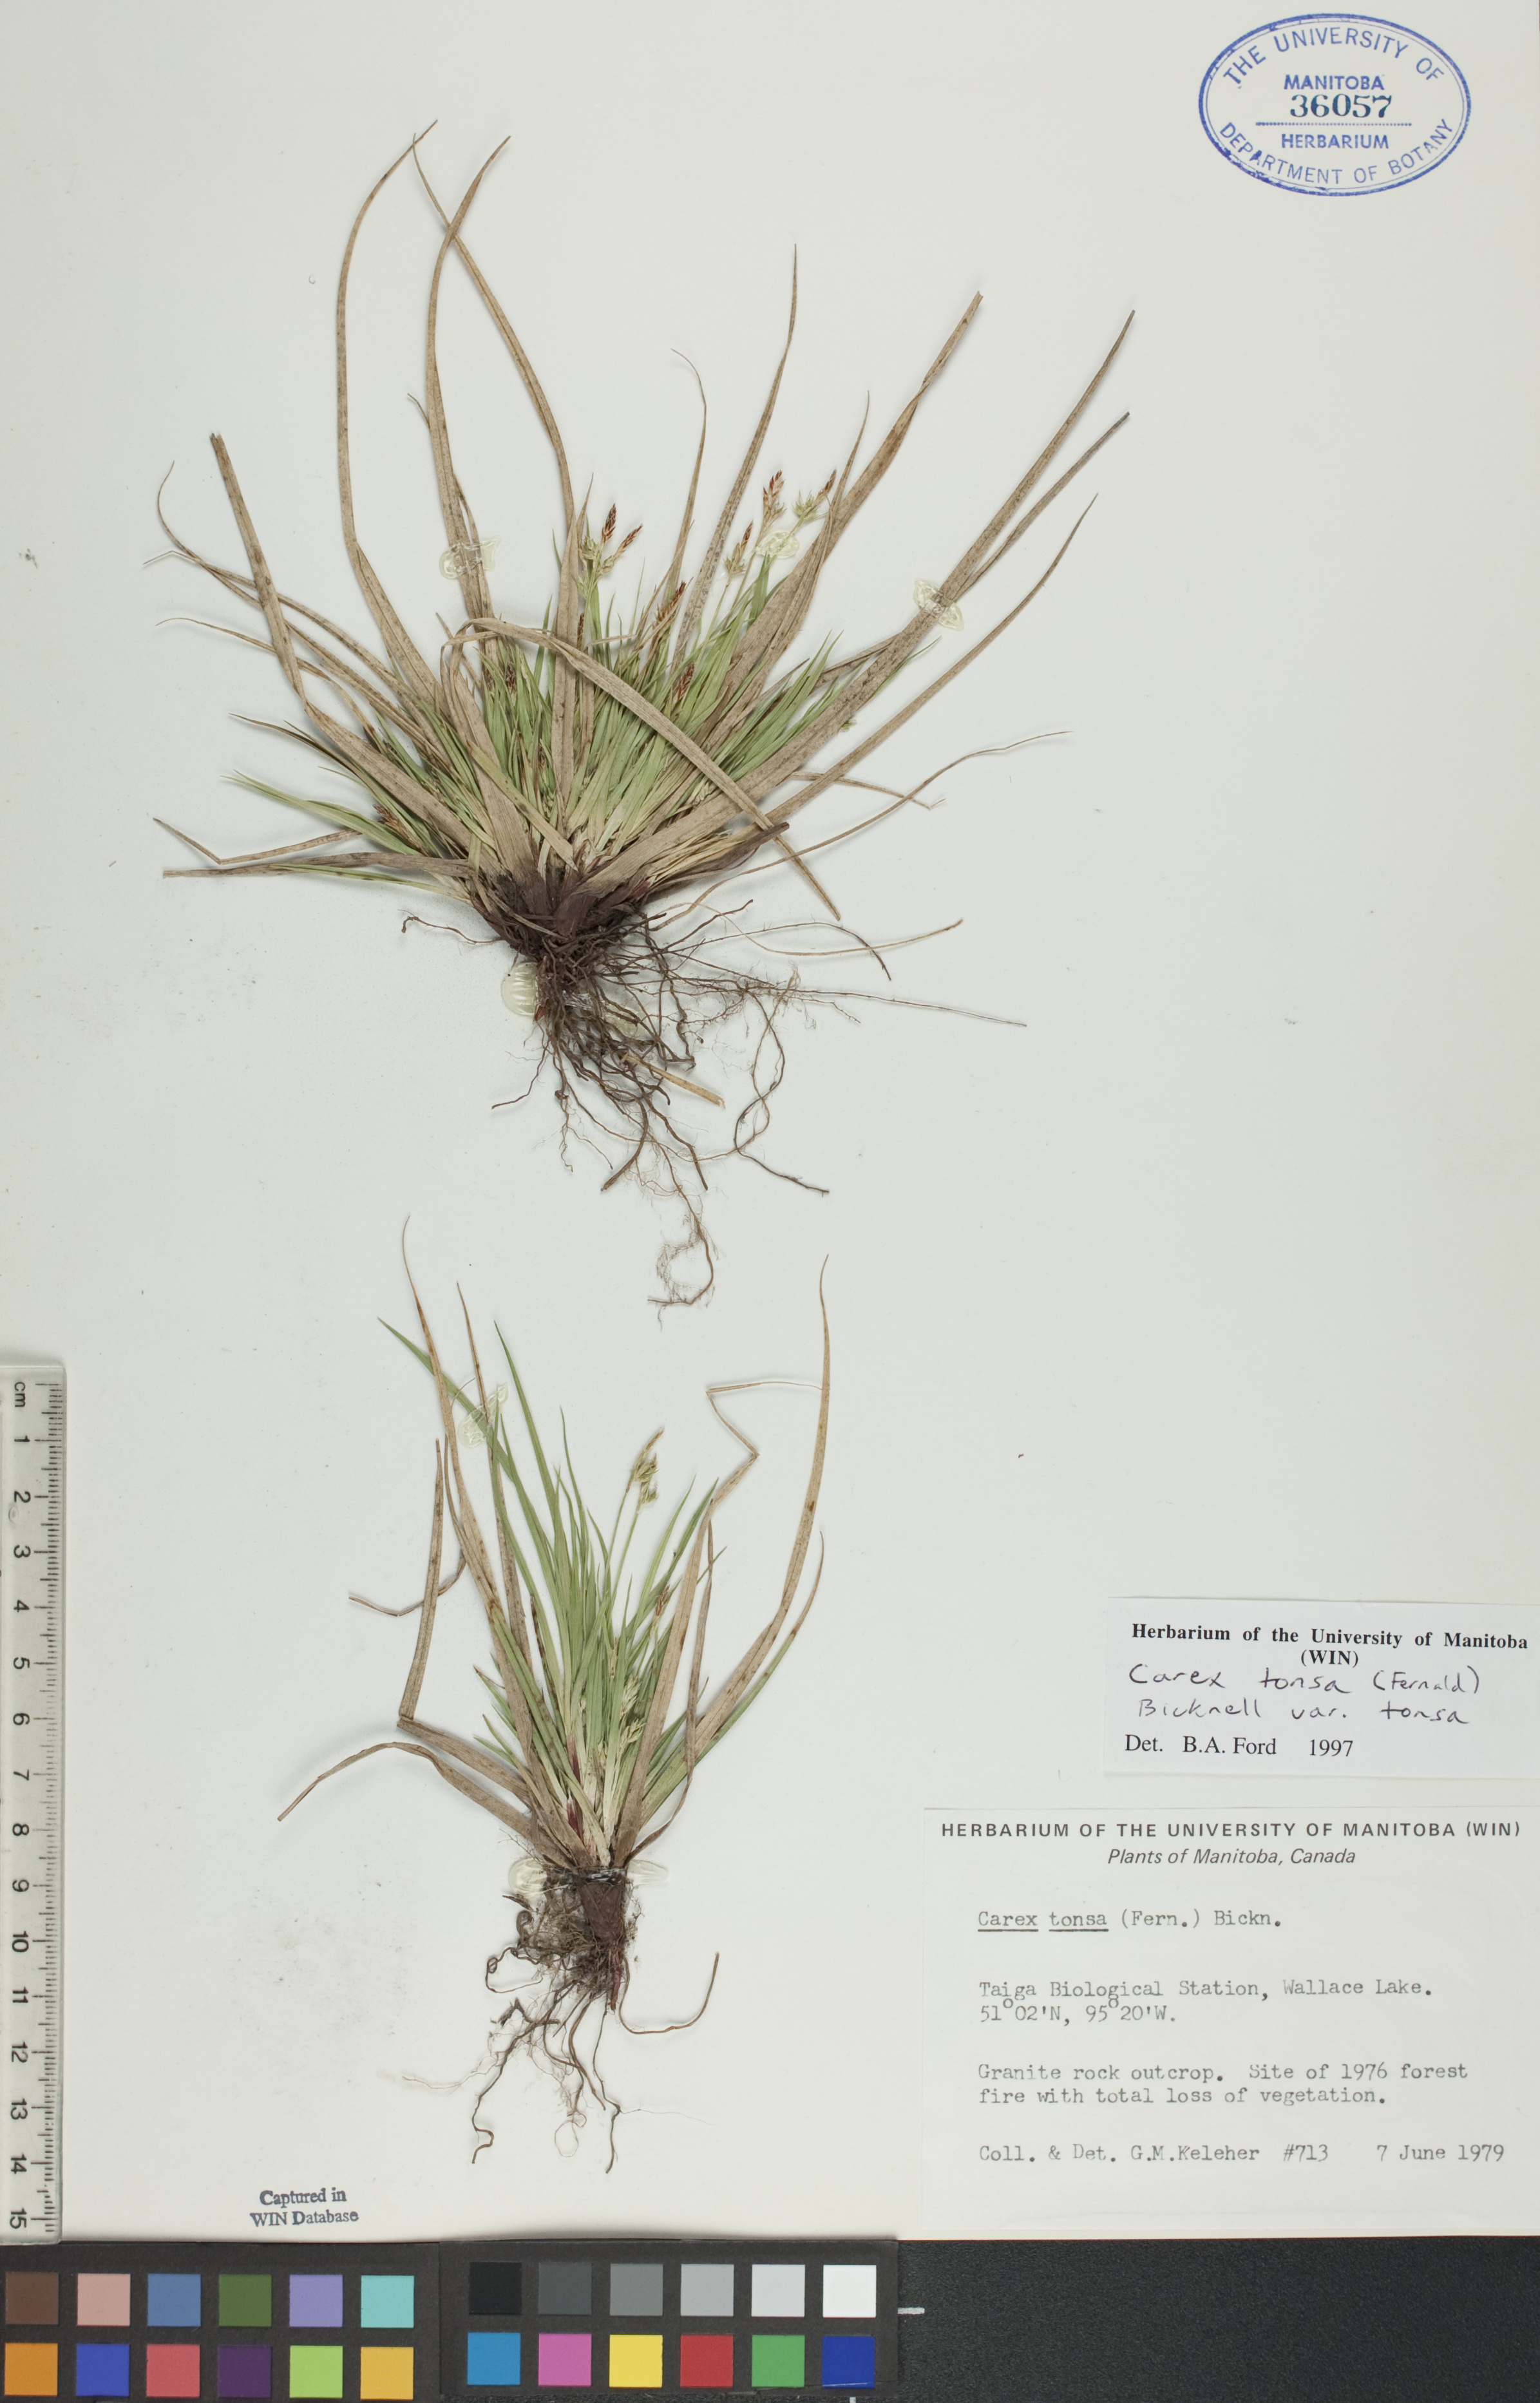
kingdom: Plantae
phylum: Tracheophyta
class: Liliopsida
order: Poales
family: Cyperaceae
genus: Carex
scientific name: Carex tonsa
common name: Bald sedge
